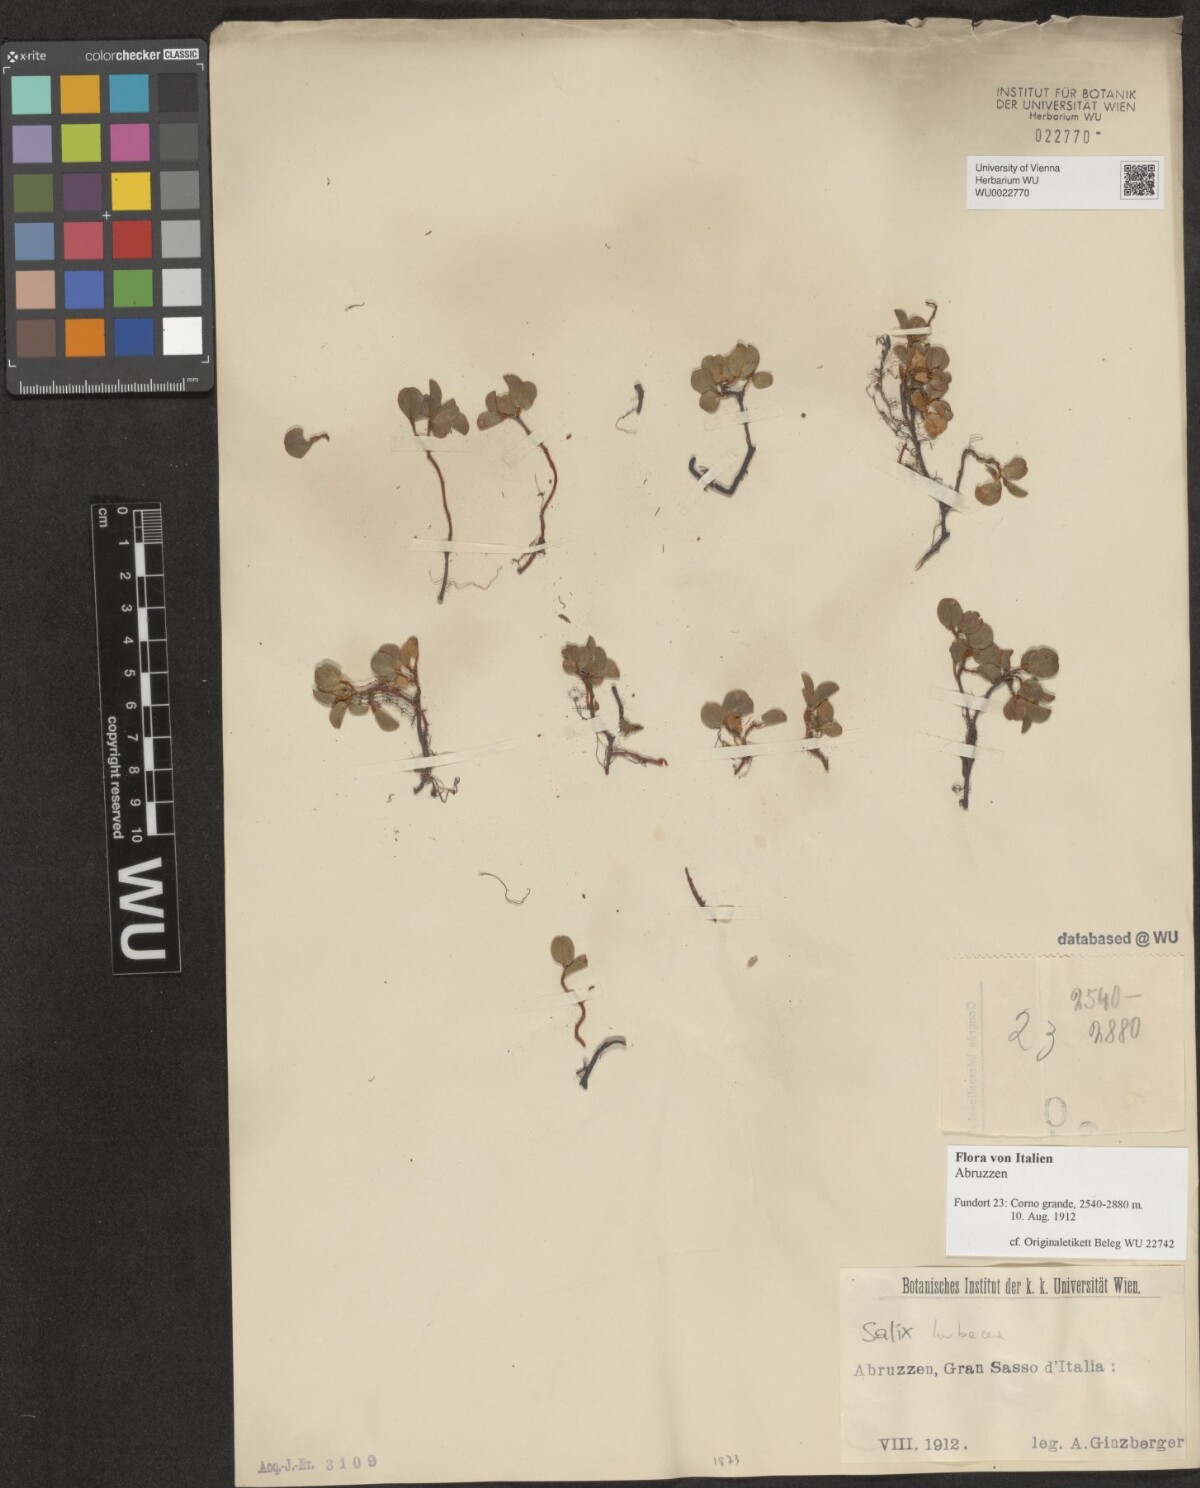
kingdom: Plantae
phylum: Tracheophyta
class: Magnoliopsida
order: Malpighiales
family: Salicaceae
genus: Salix
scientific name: Salix herbacea
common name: Dwarf willow
